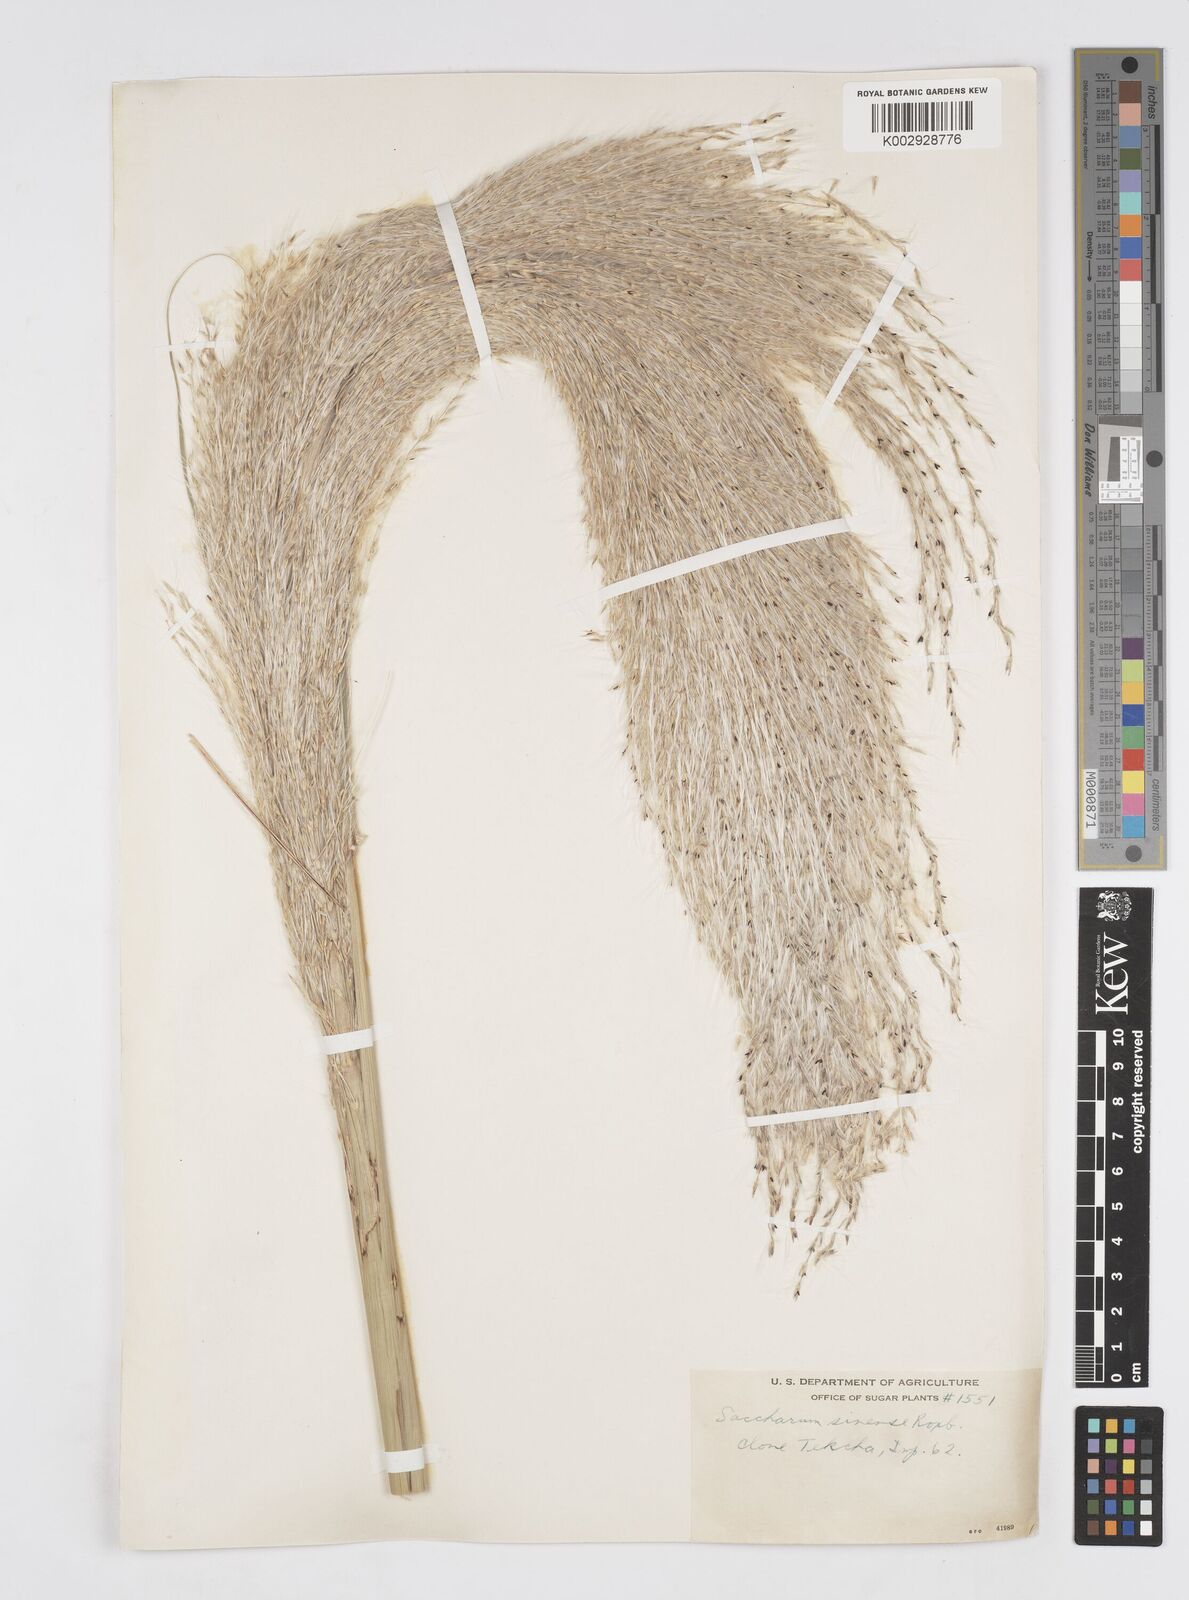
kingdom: Plantae
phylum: Tracheophyta
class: Liliopsida
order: Poales
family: Poaceae
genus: Saccharum
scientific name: Saccharum officinarum
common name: Sugarcane
